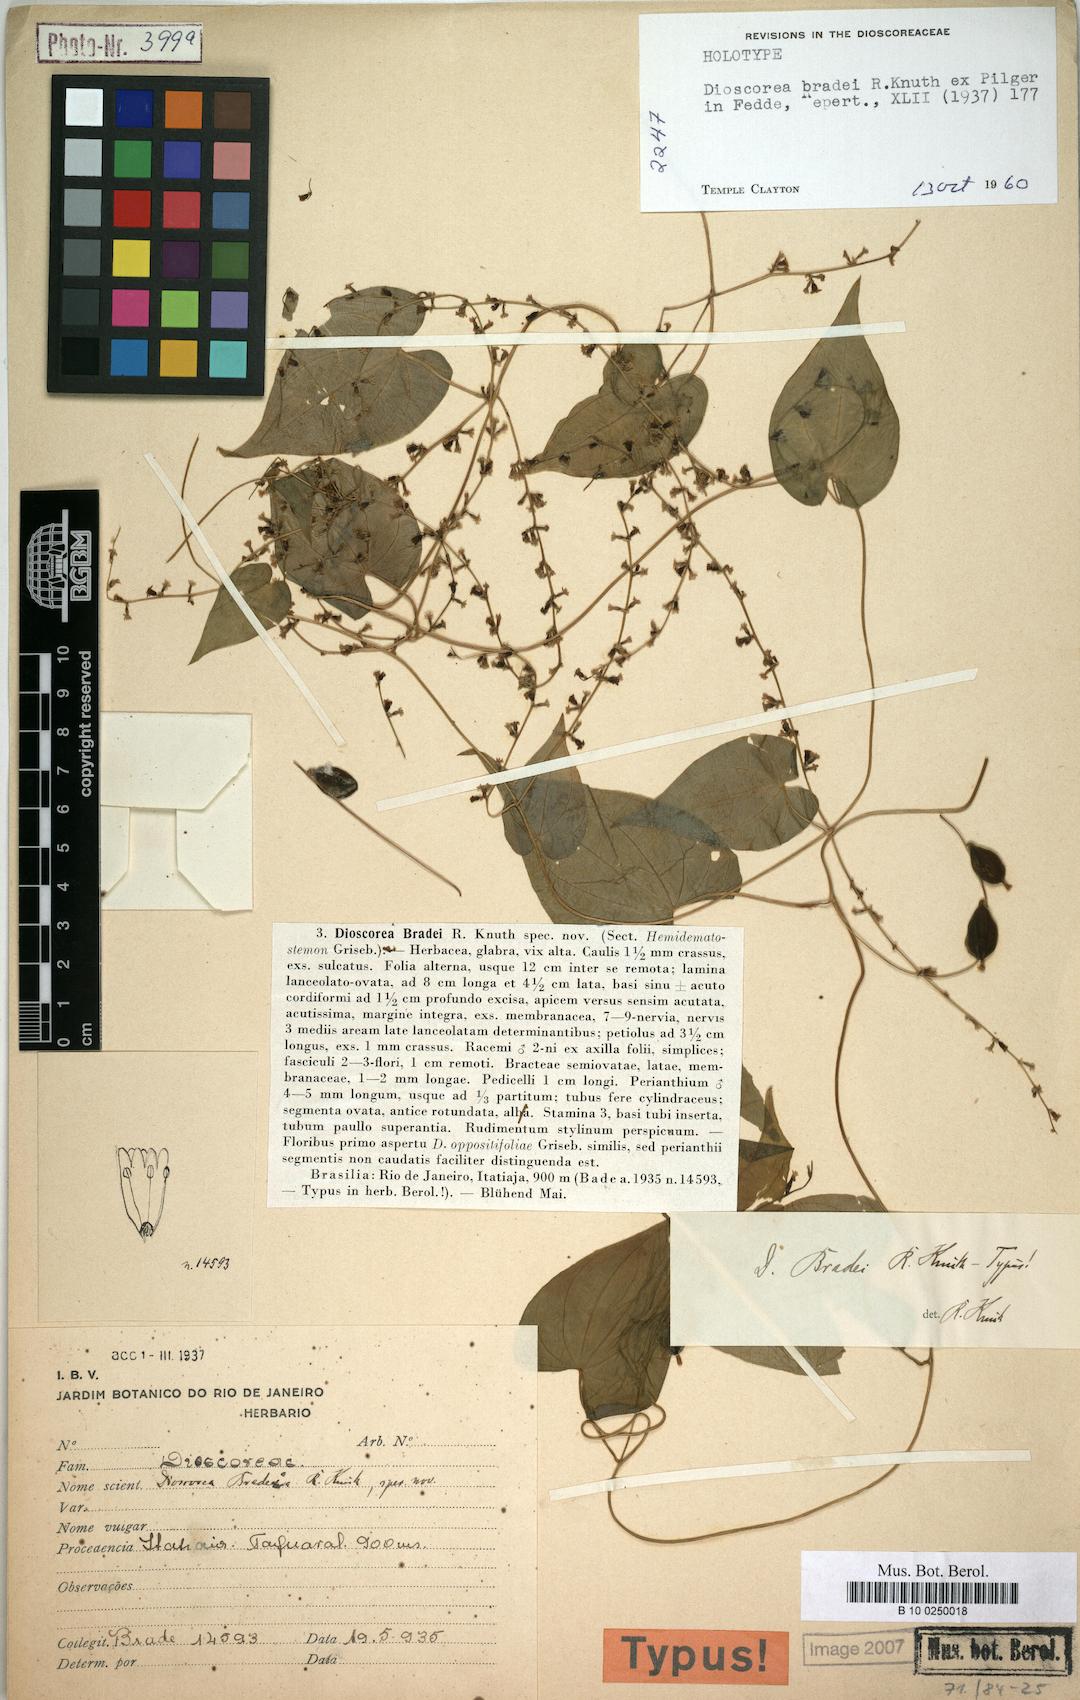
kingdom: Plantae
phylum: Tracheophyta
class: Liliopsida
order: Dioscoreales
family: Dioscoreaceae
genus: Dioscorea
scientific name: Dioscorea bradei
